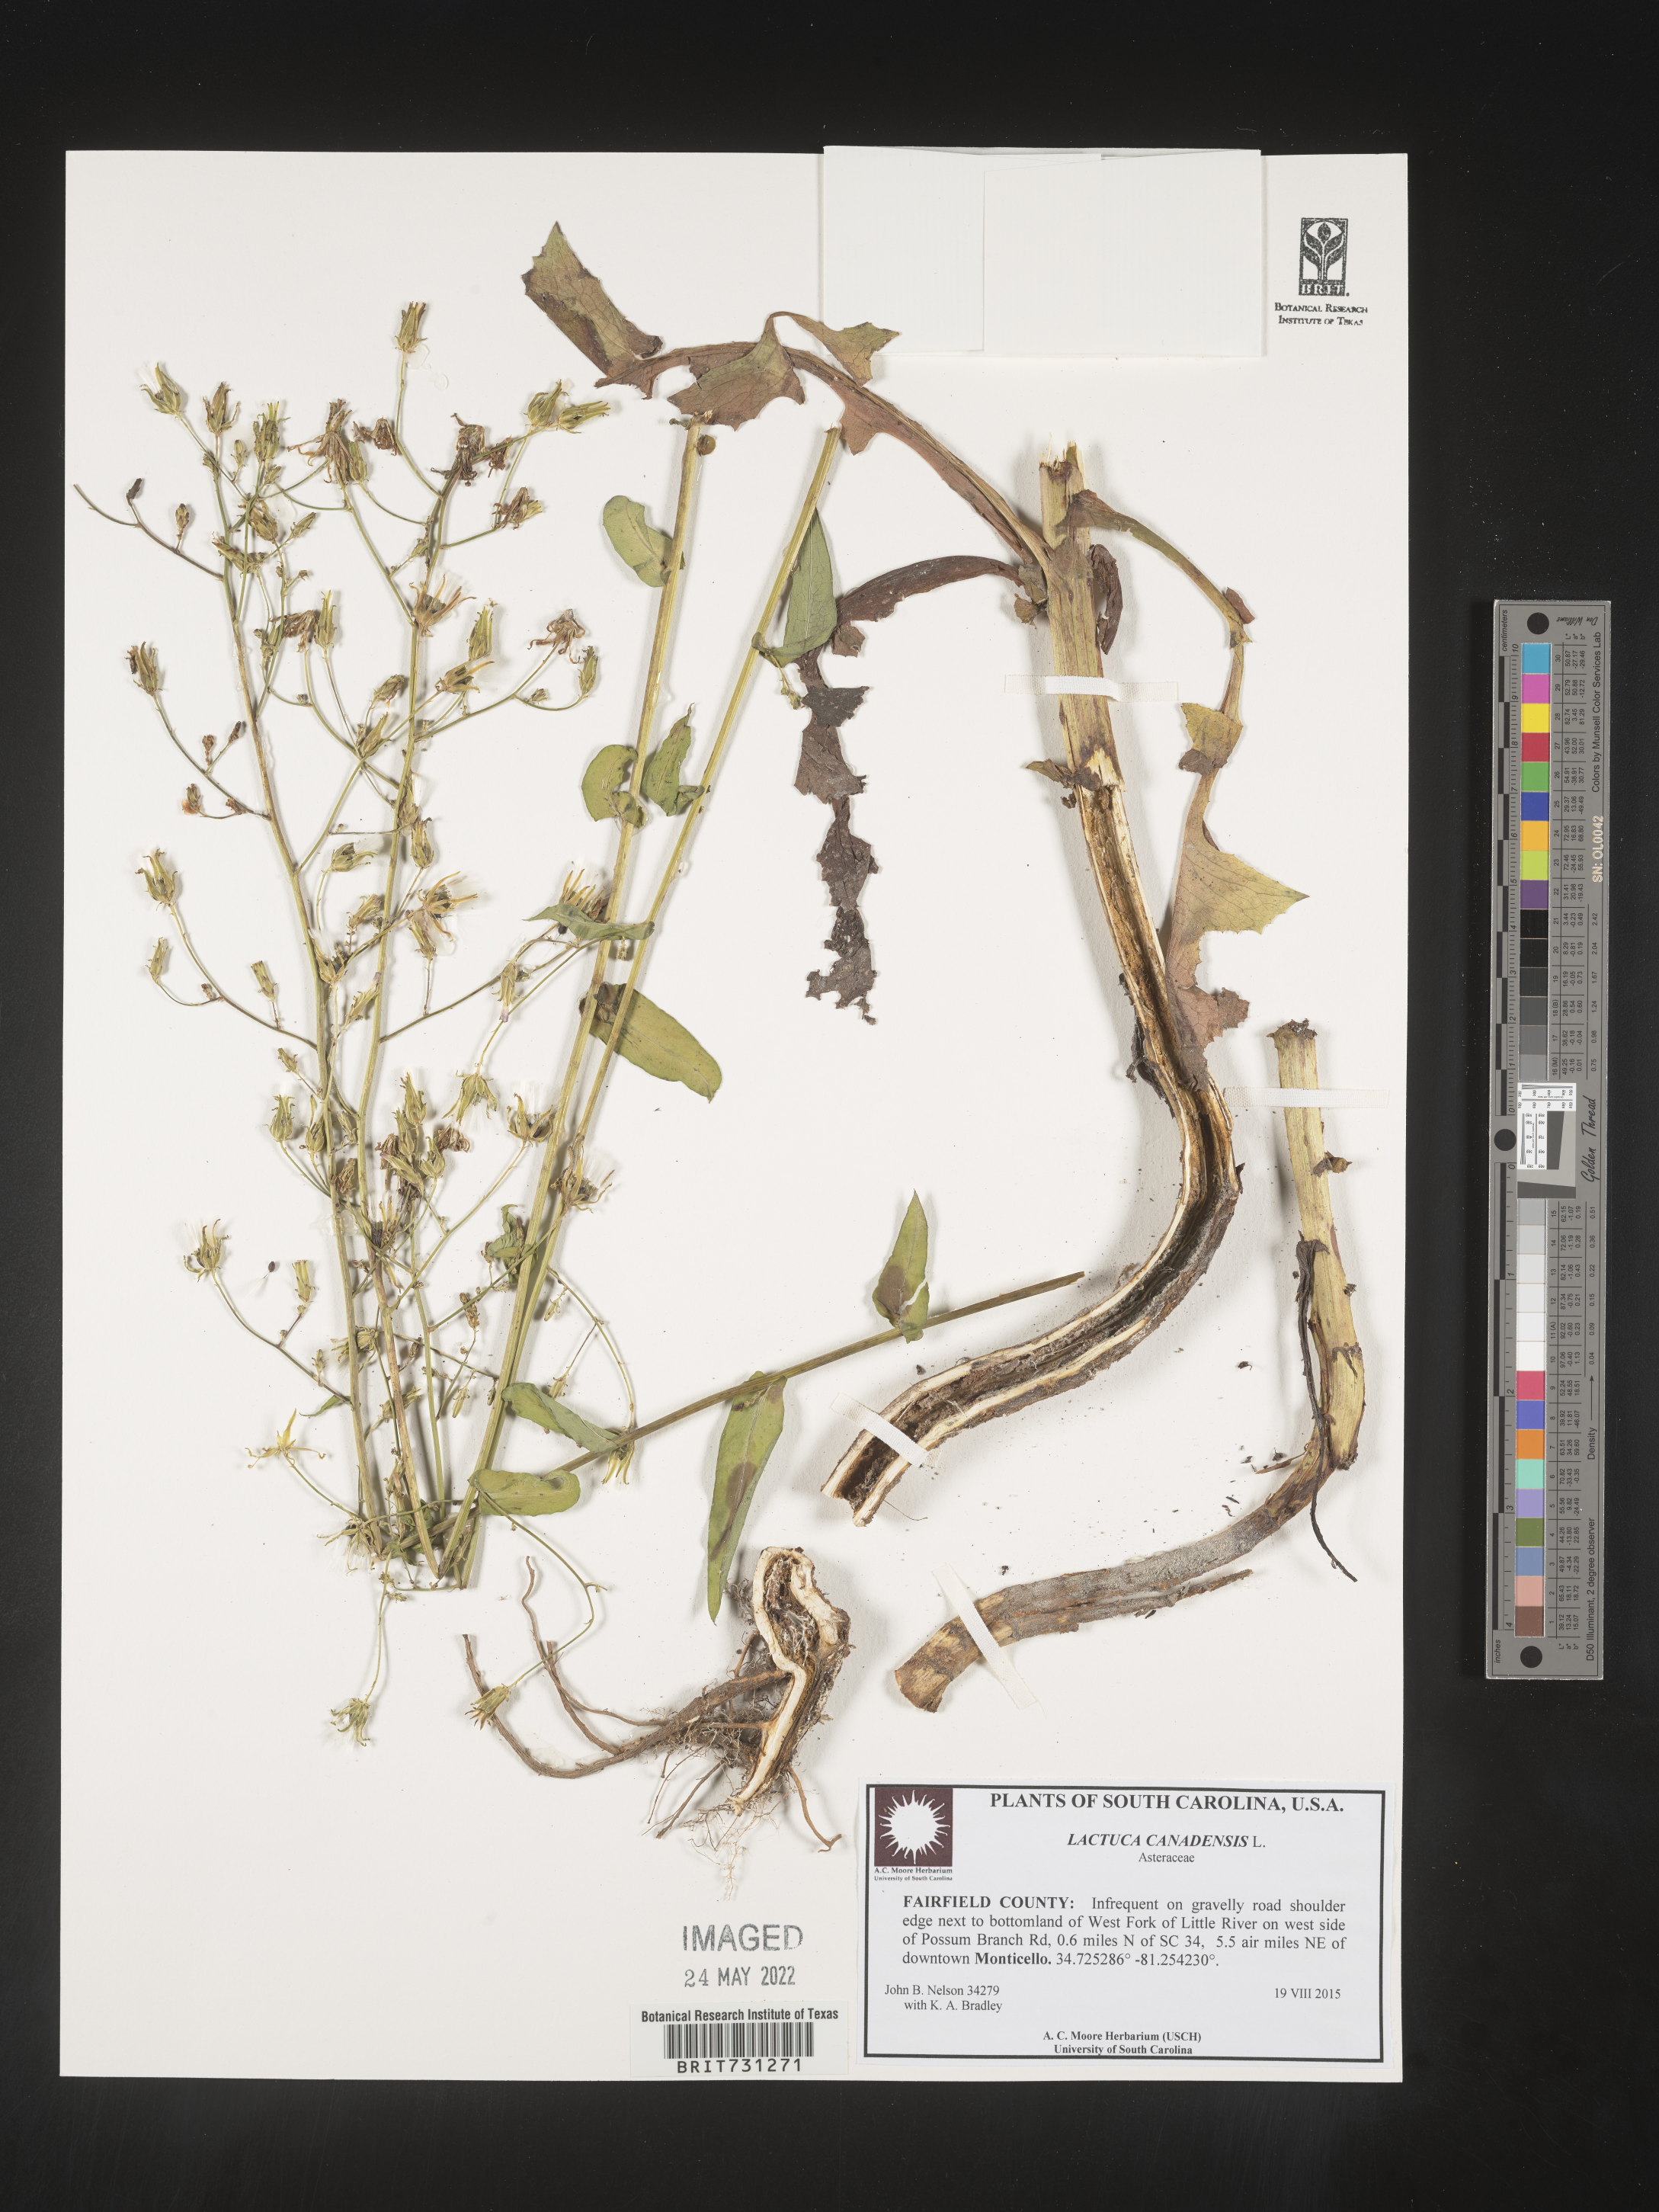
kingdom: Plantae
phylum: Tracheophyta
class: Magnoliopsida
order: Asterales
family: Asteraceae
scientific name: Asteraceae
